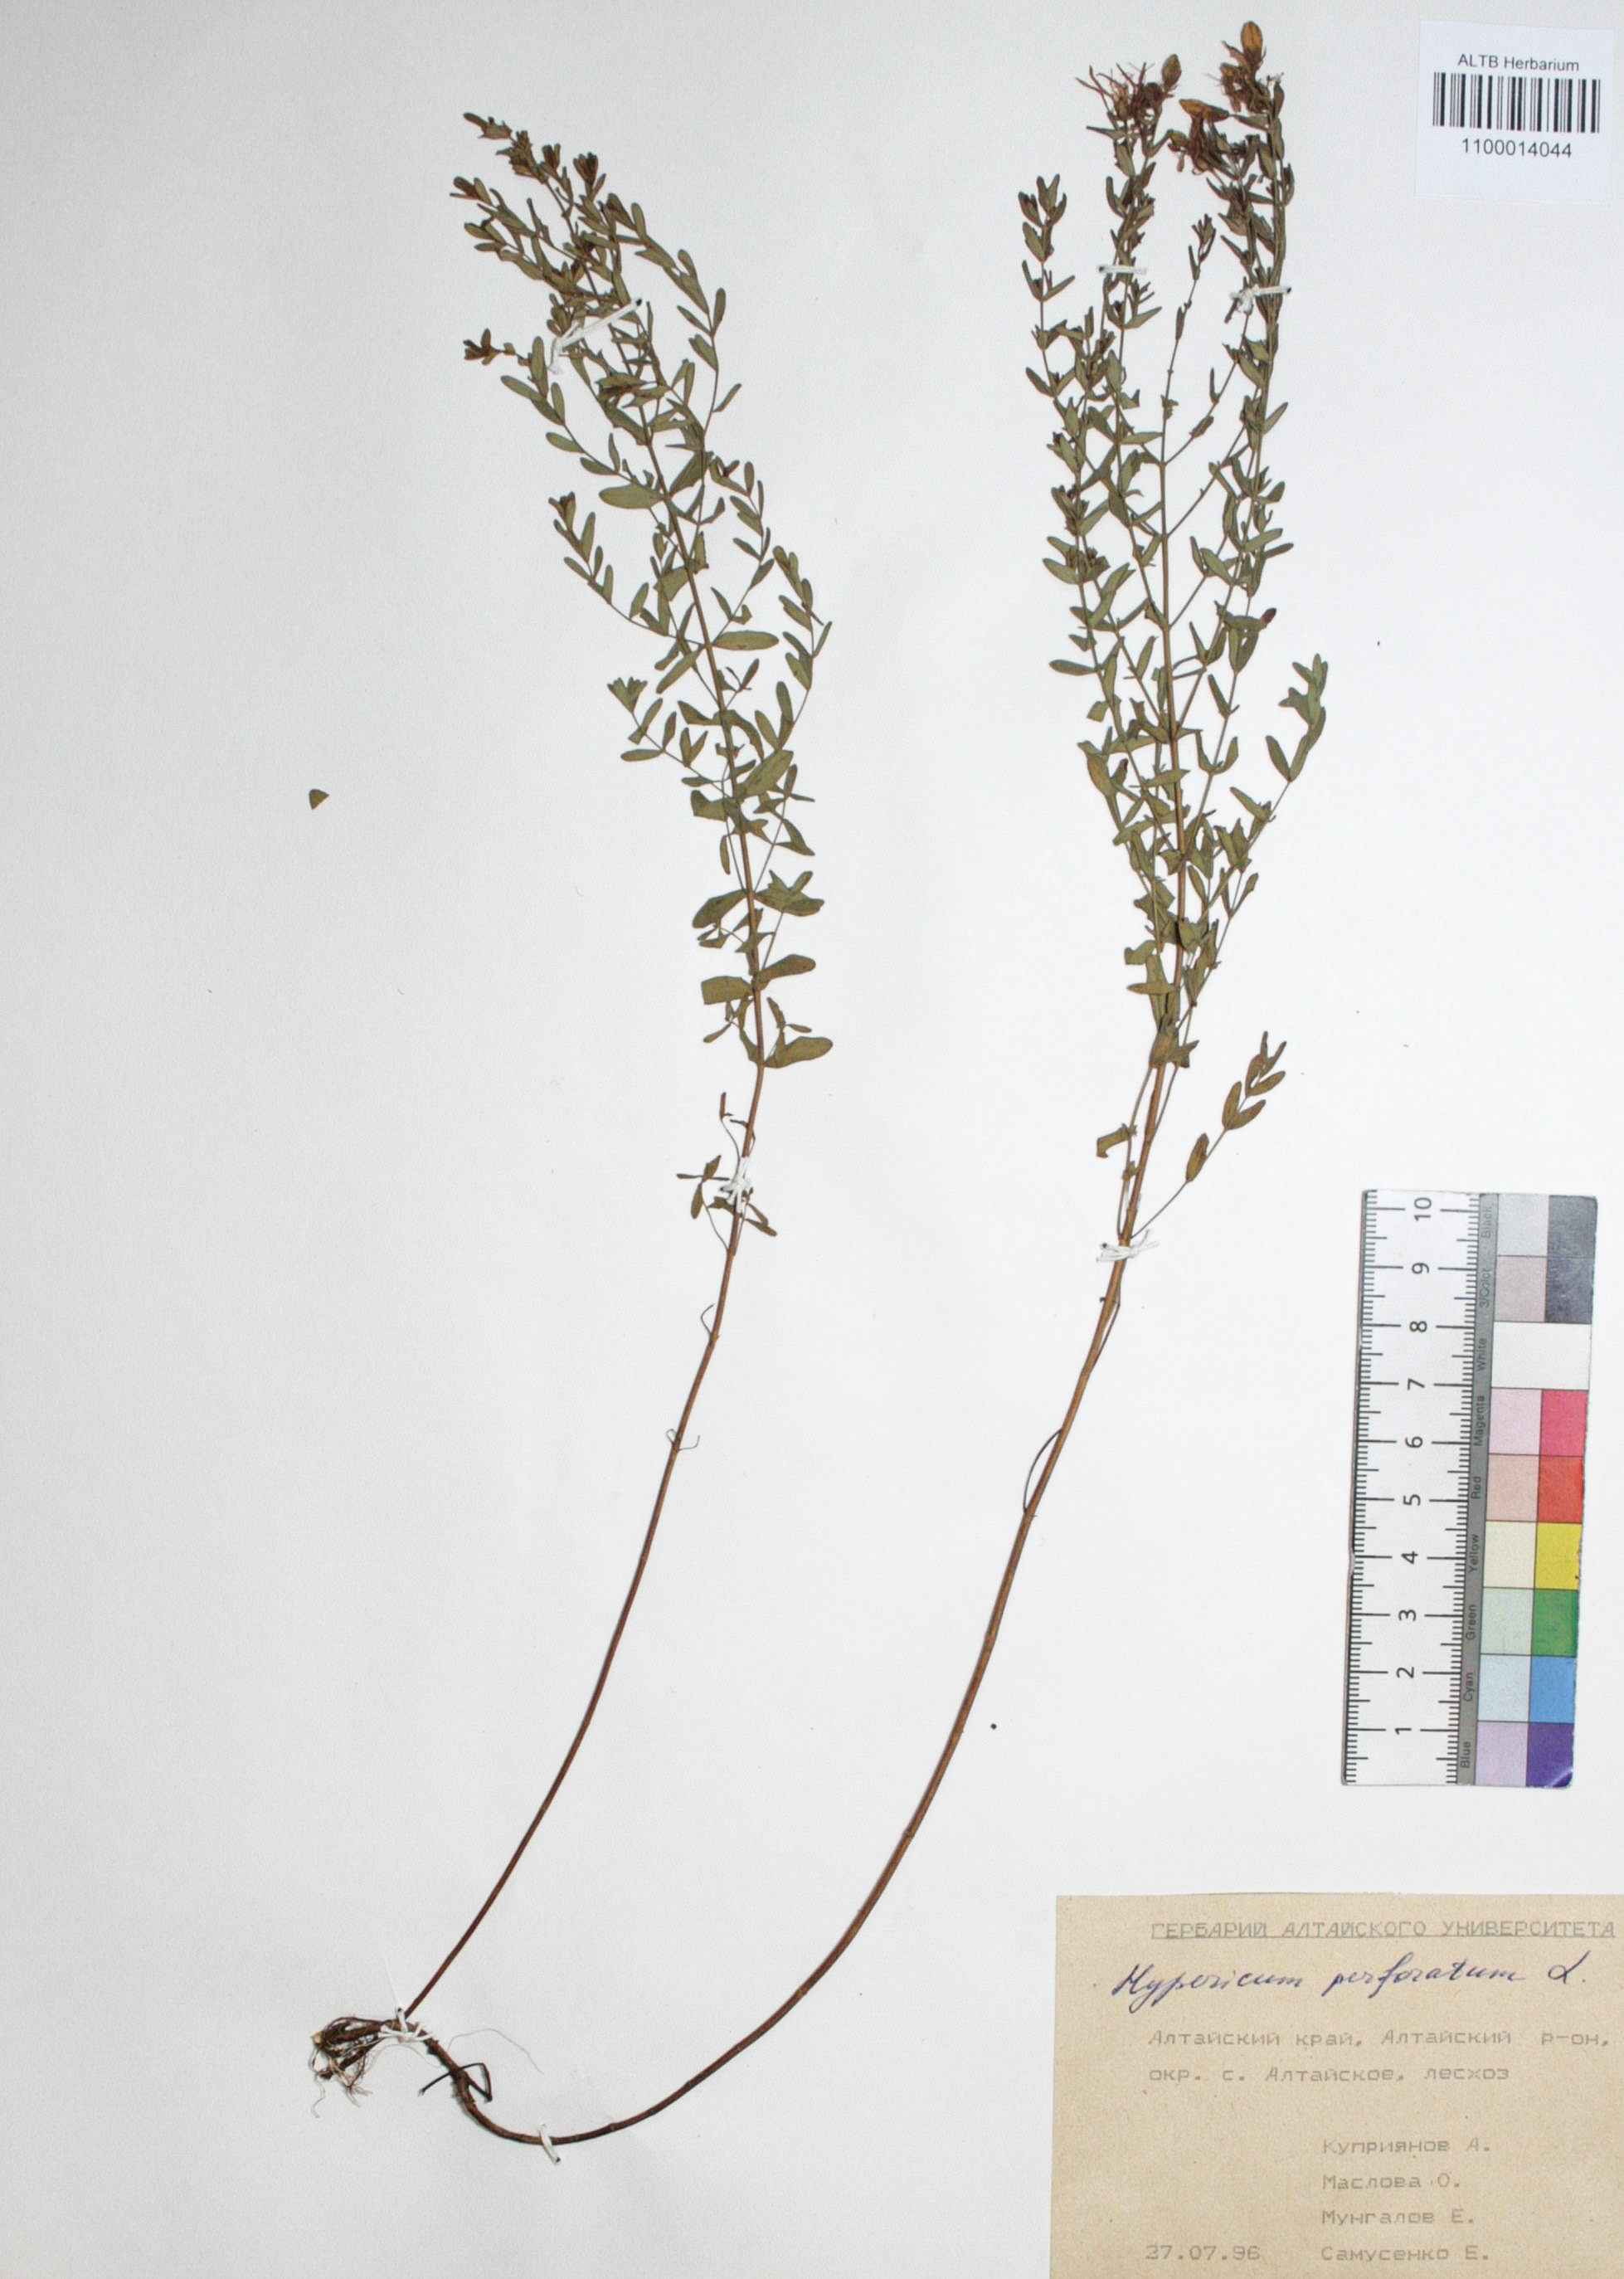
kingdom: Plantae
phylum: Tracheophyta
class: Magnoliopsida
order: Malpighiales
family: Hypericaceae
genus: Hypericum
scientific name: Hypericum perforatum
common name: Common st. johnswort
